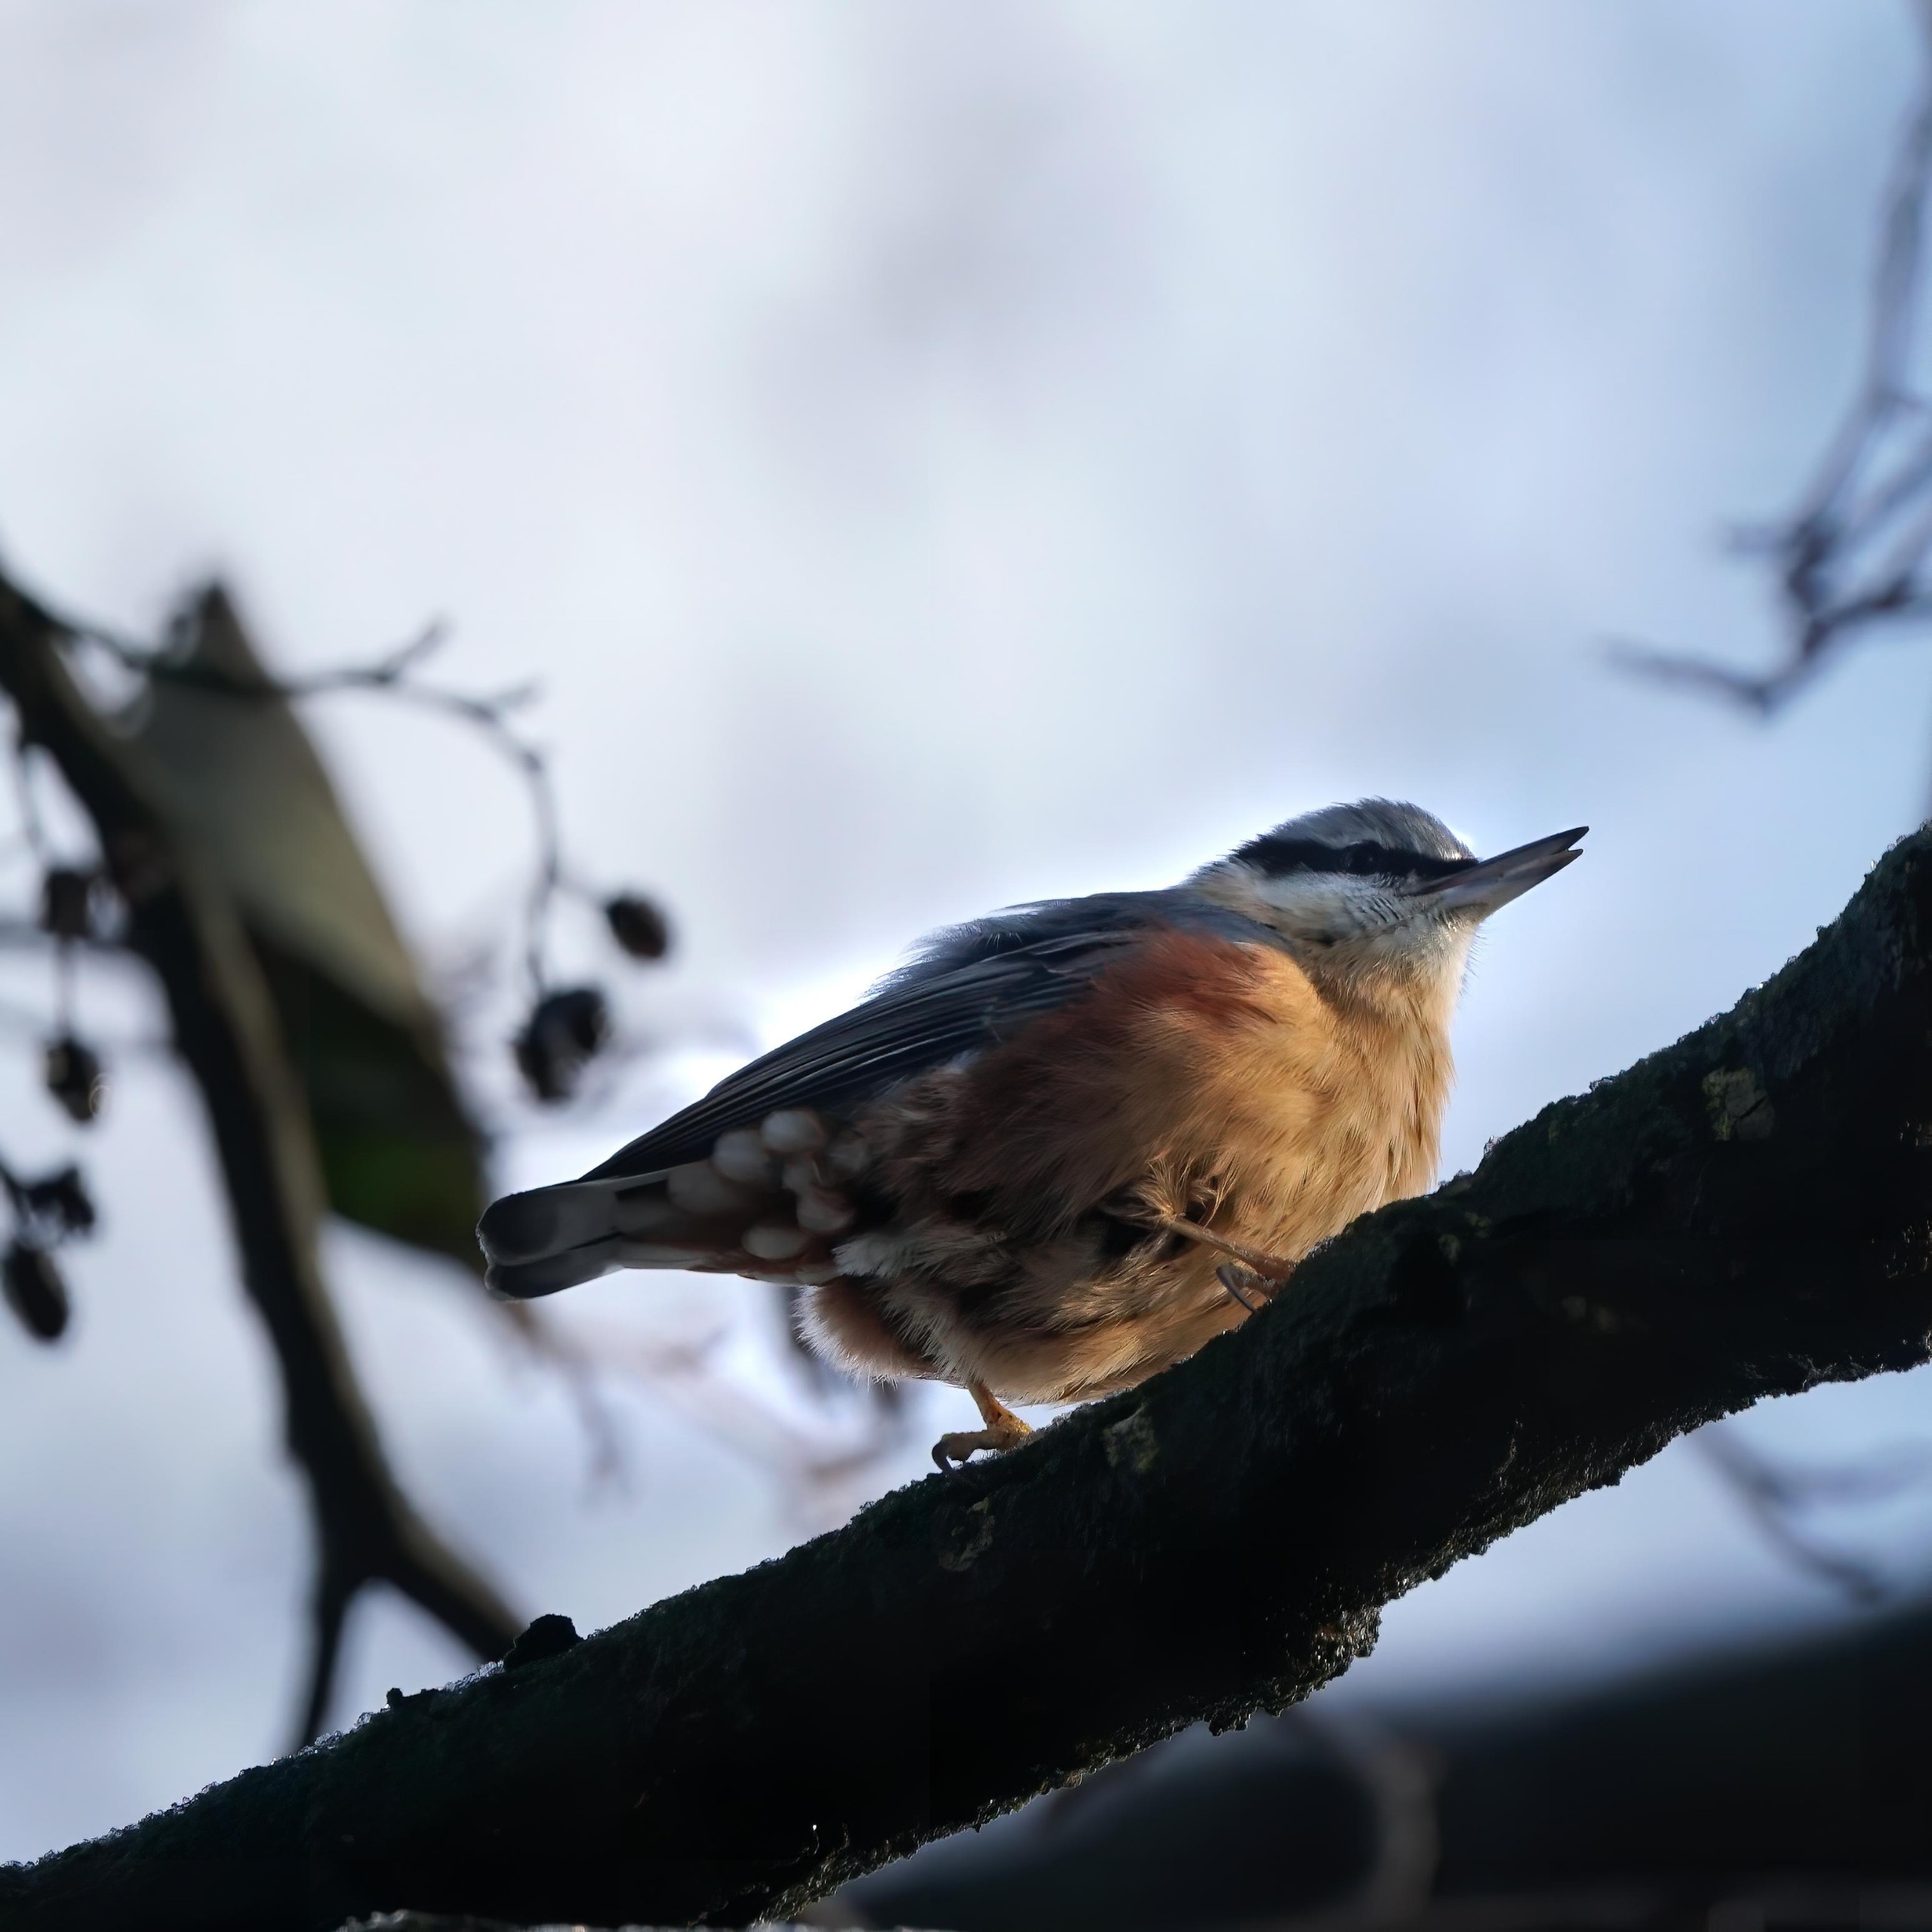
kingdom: Animalia
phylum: Chordata
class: Aves
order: Passeriformes
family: Sittidae
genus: Sitta
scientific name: Sitta europaea
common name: Spætmejse
